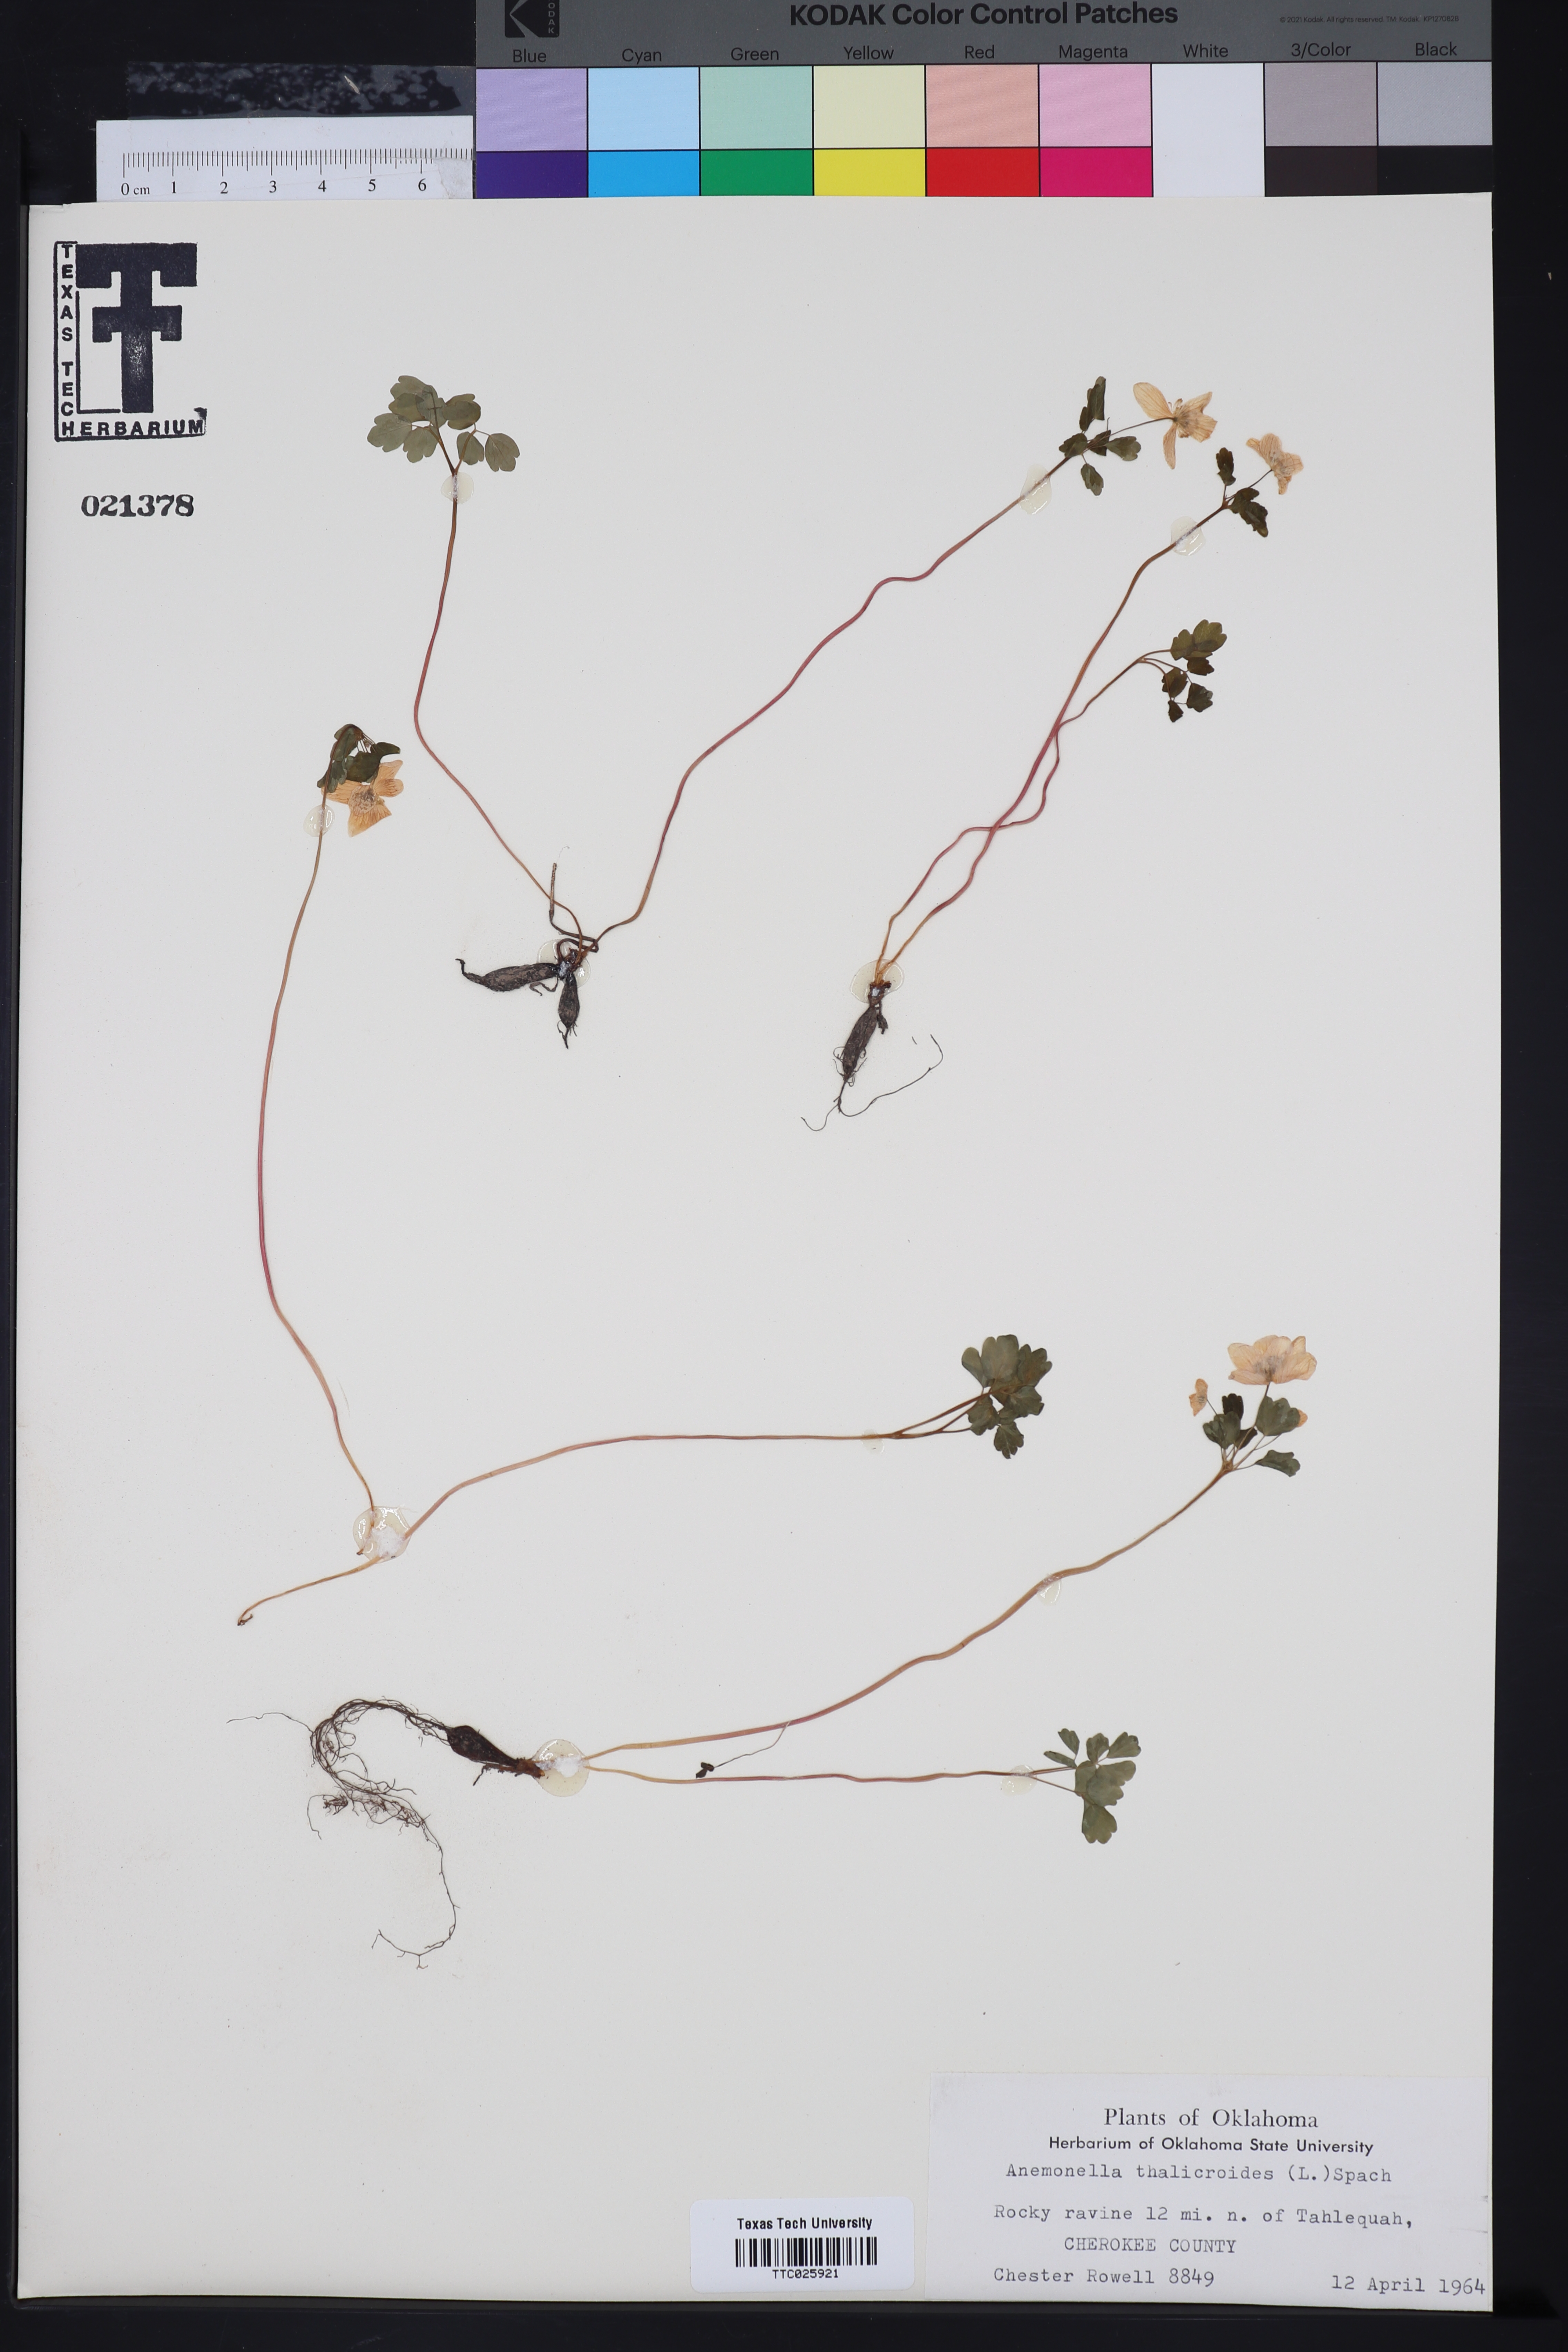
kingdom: Plantae
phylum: Tracheophyta
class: Magnoliopsida
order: Ranunculales
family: Ranunculaceae
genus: Thalictrum
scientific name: Thalictrum thalictroides
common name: Rue-anemone
